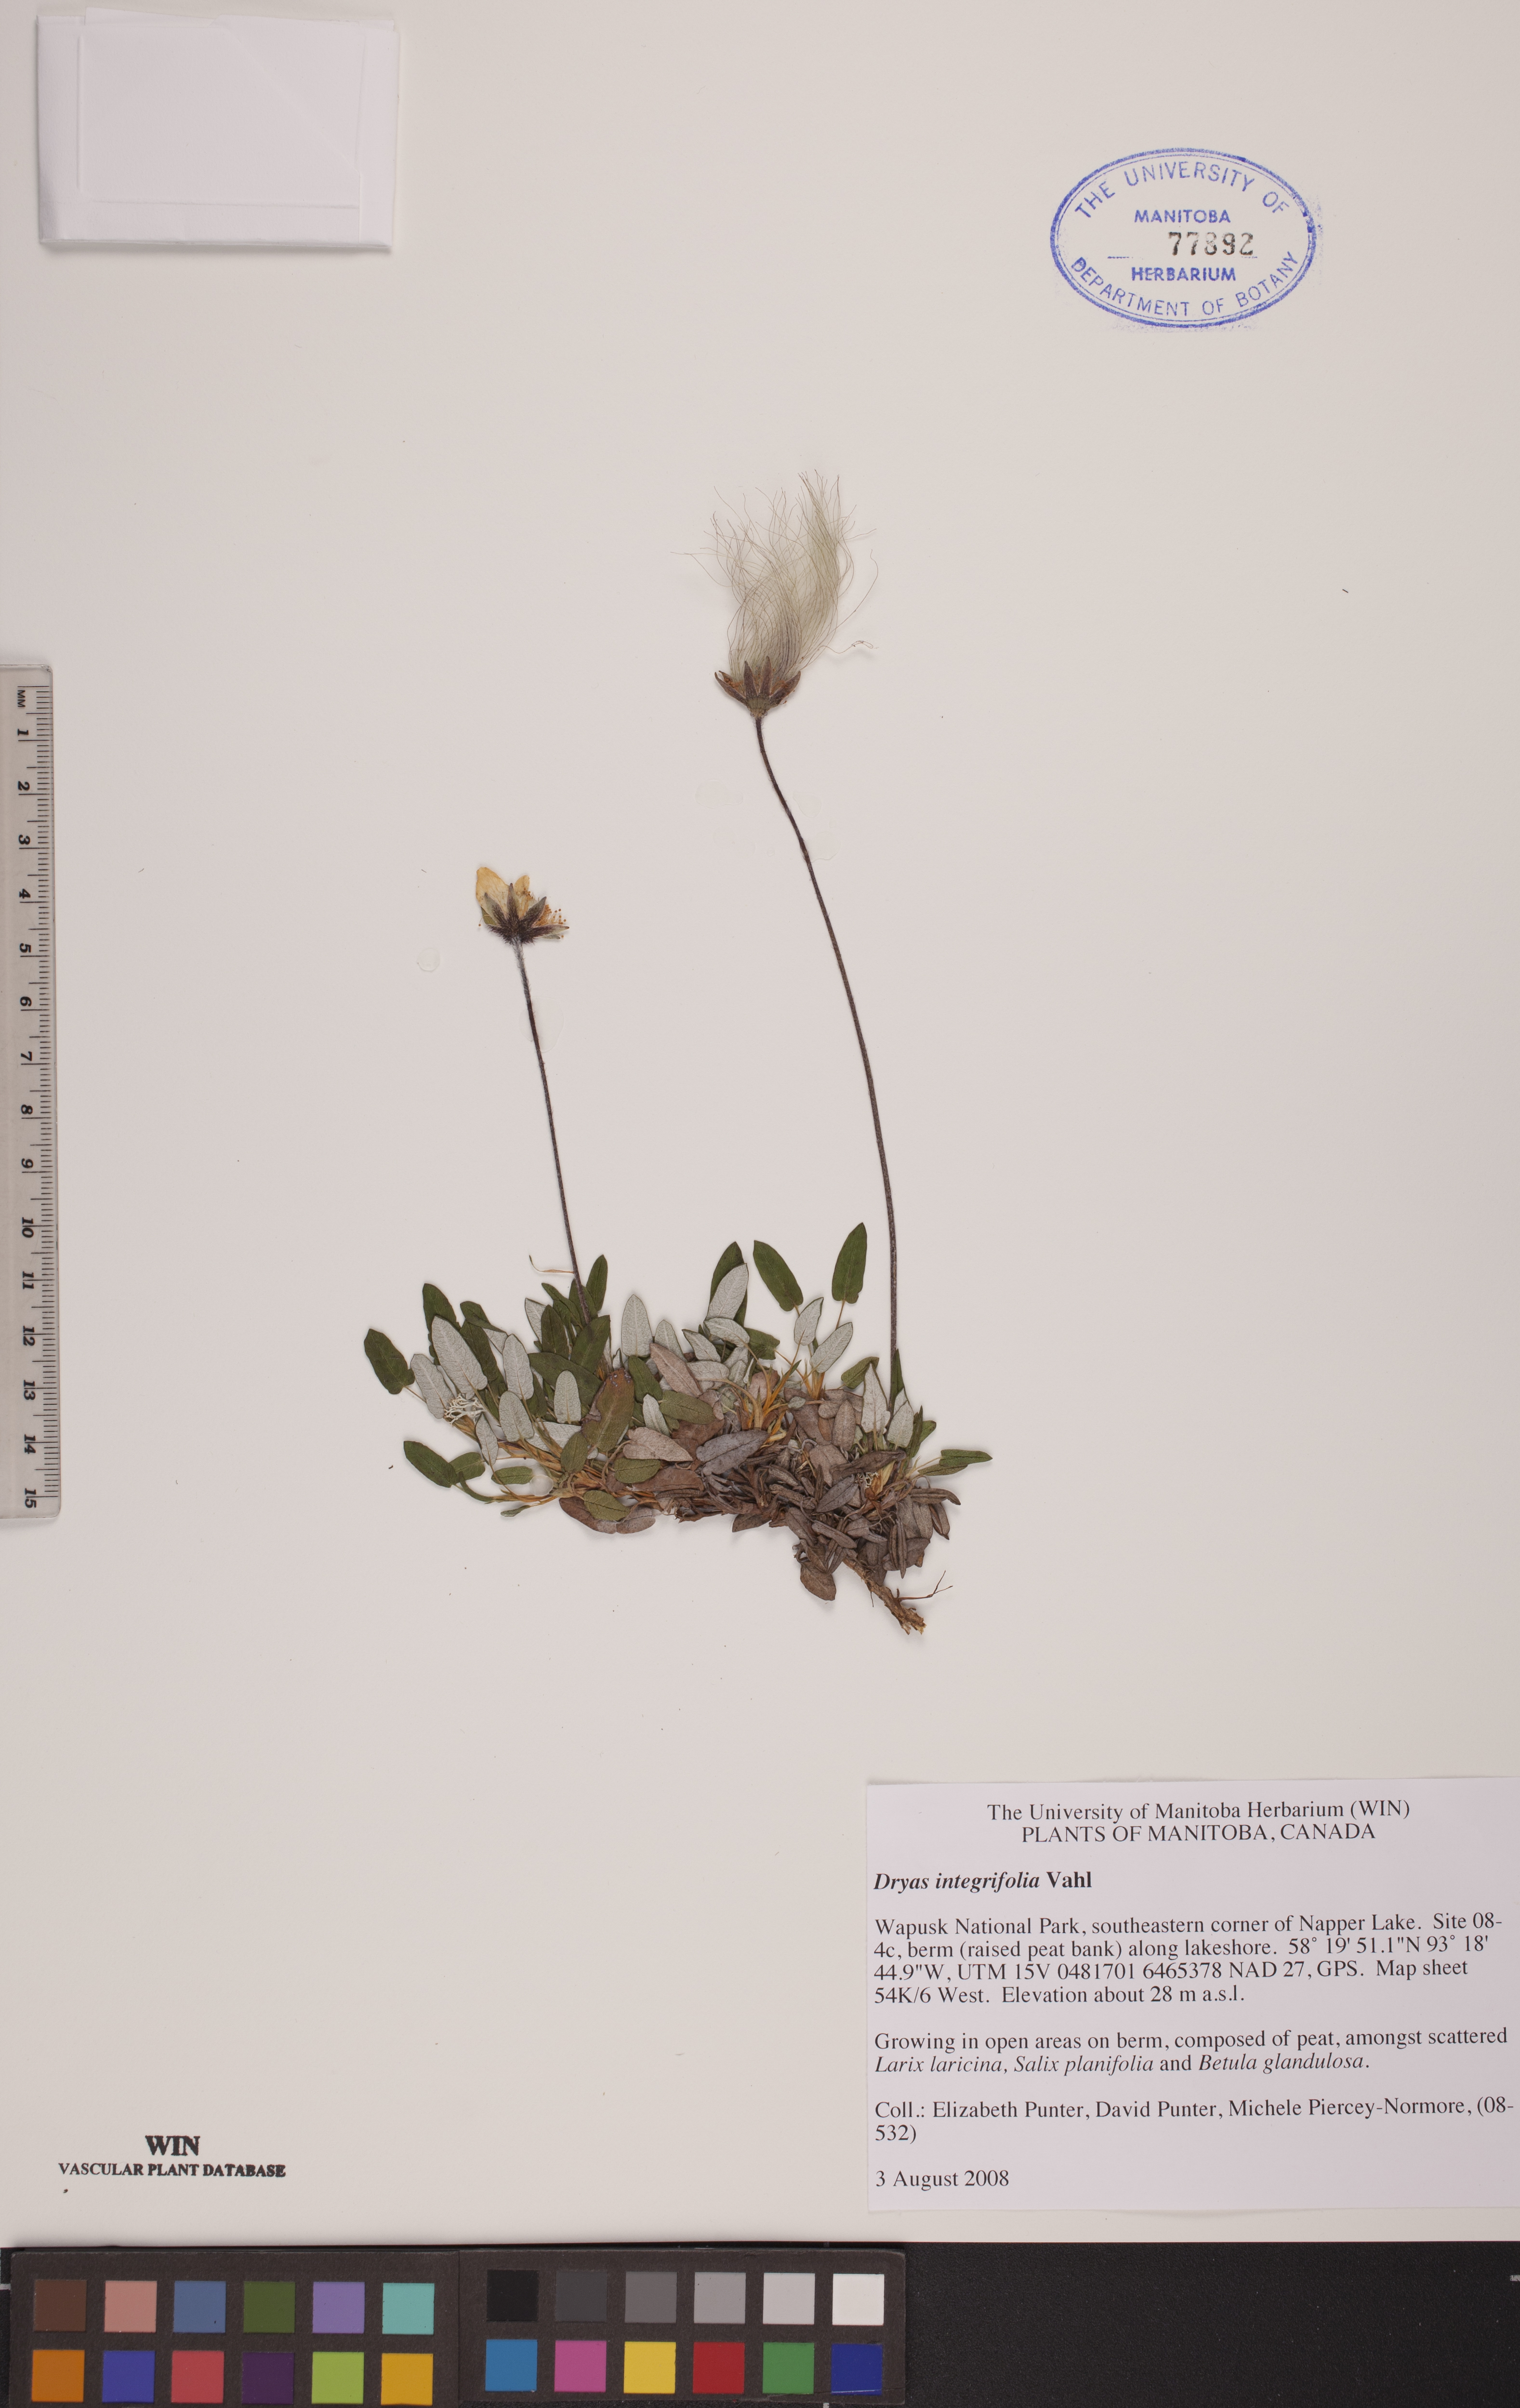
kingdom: Plantae
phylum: Tracheophyta
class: Magnoliopsida
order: Rosales
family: Rosaceae
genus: Dryas
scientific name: Dryas integrifolia
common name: Entire-leaved mountain avens
